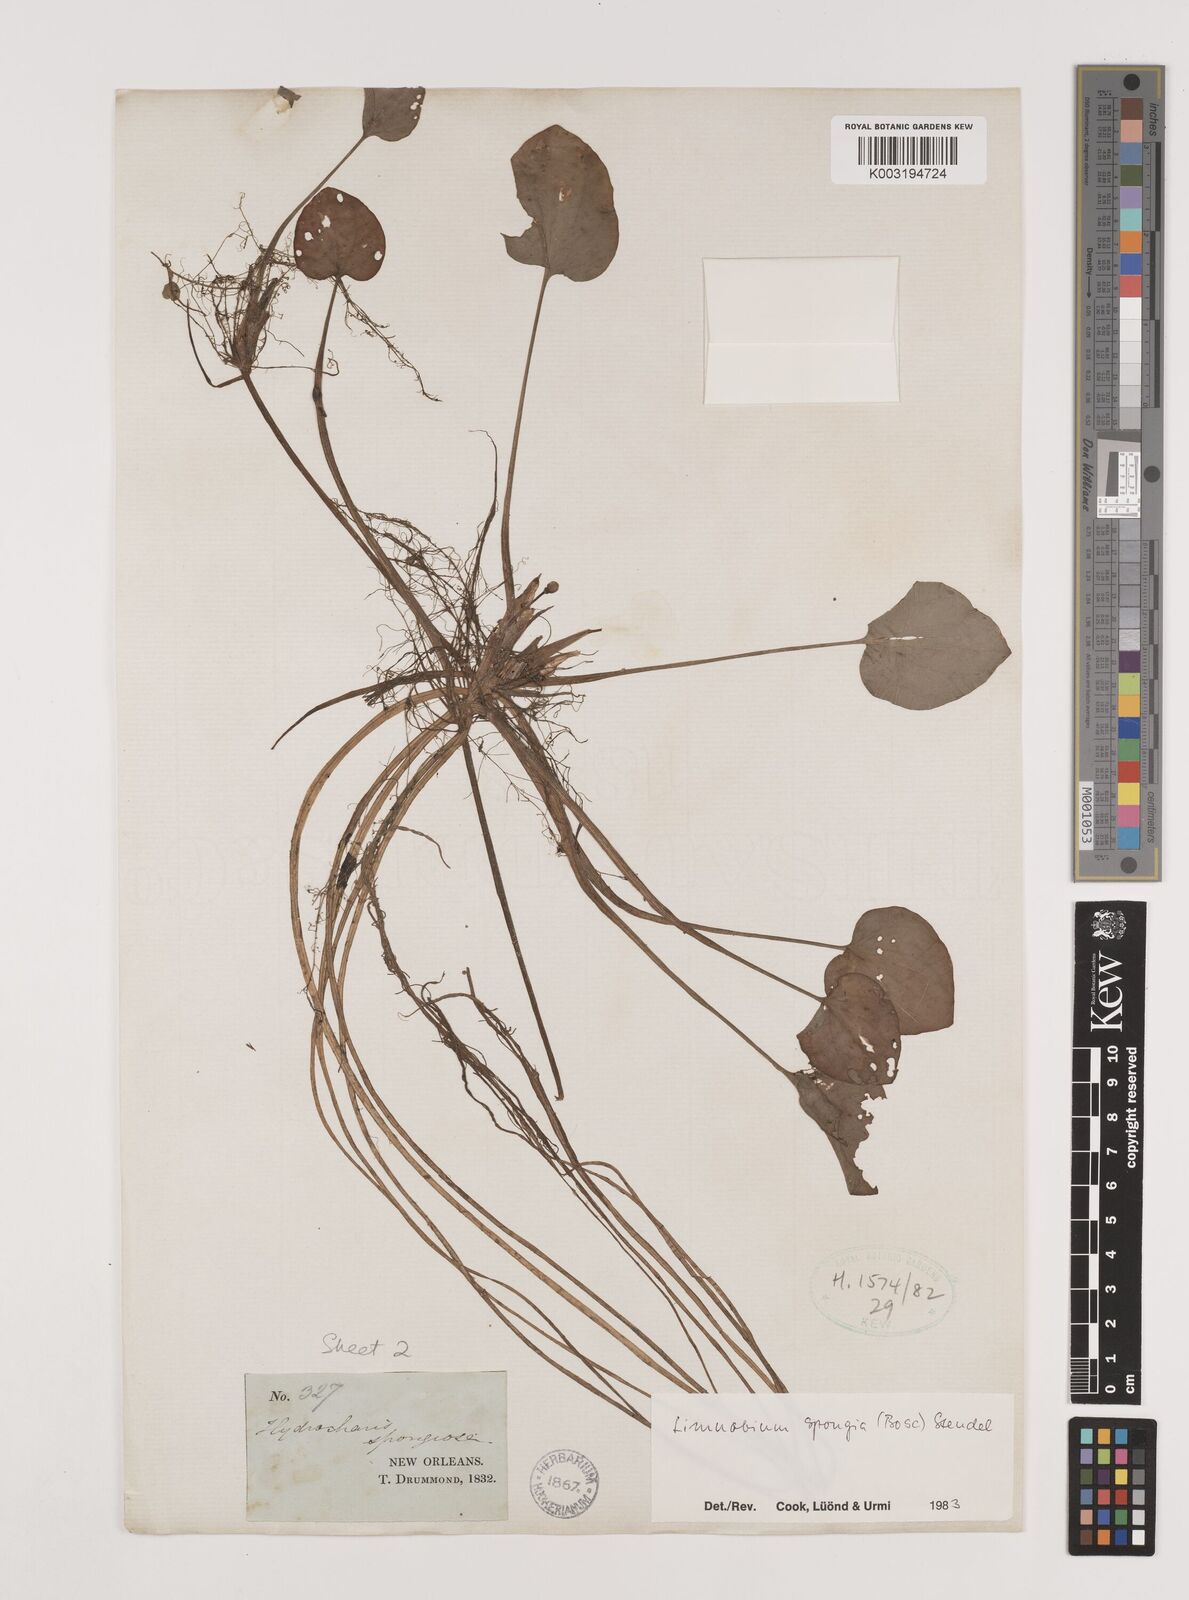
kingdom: Plantae
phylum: Tracheophyta
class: Liliopsida
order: Alismatales
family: Hydrocharitaceae
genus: Hydrocharis
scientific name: Hydrocharis spongia
